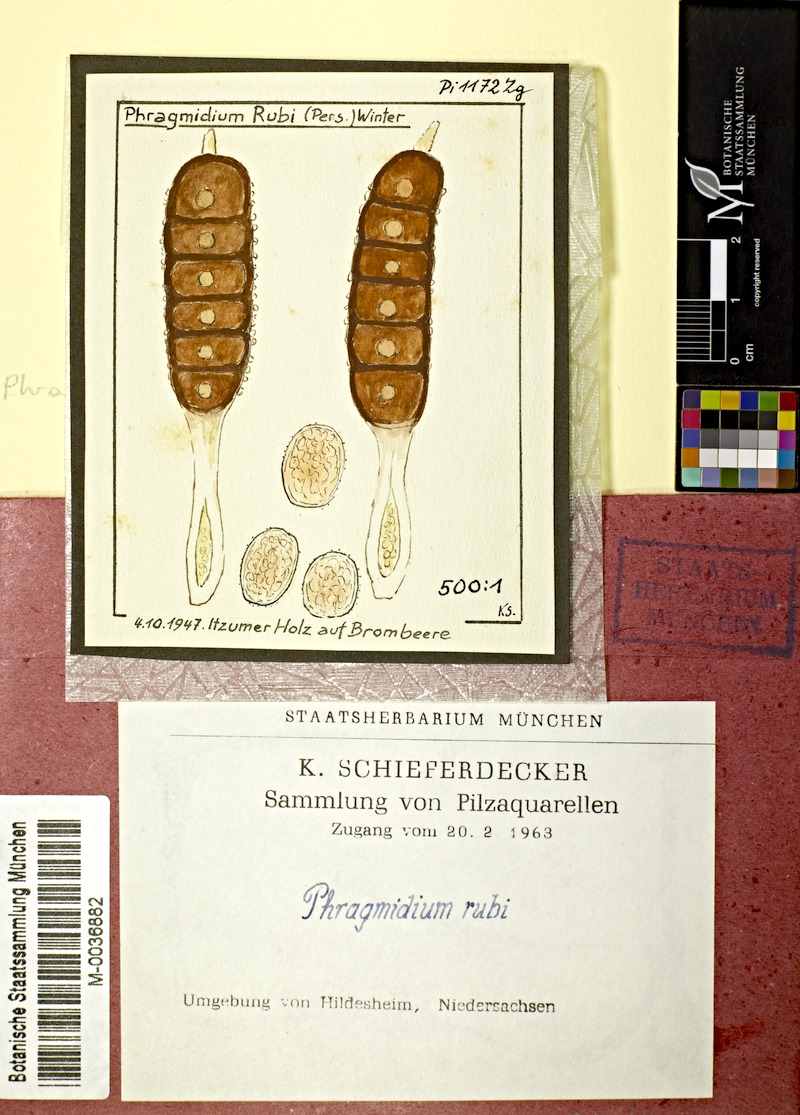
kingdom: Fungi
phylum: Basidiomycota
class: Pucciniomycetes
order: Pucciniales
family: Phragmidiaceae
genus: Phragmidium
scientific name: Phragmidium bulbosum
